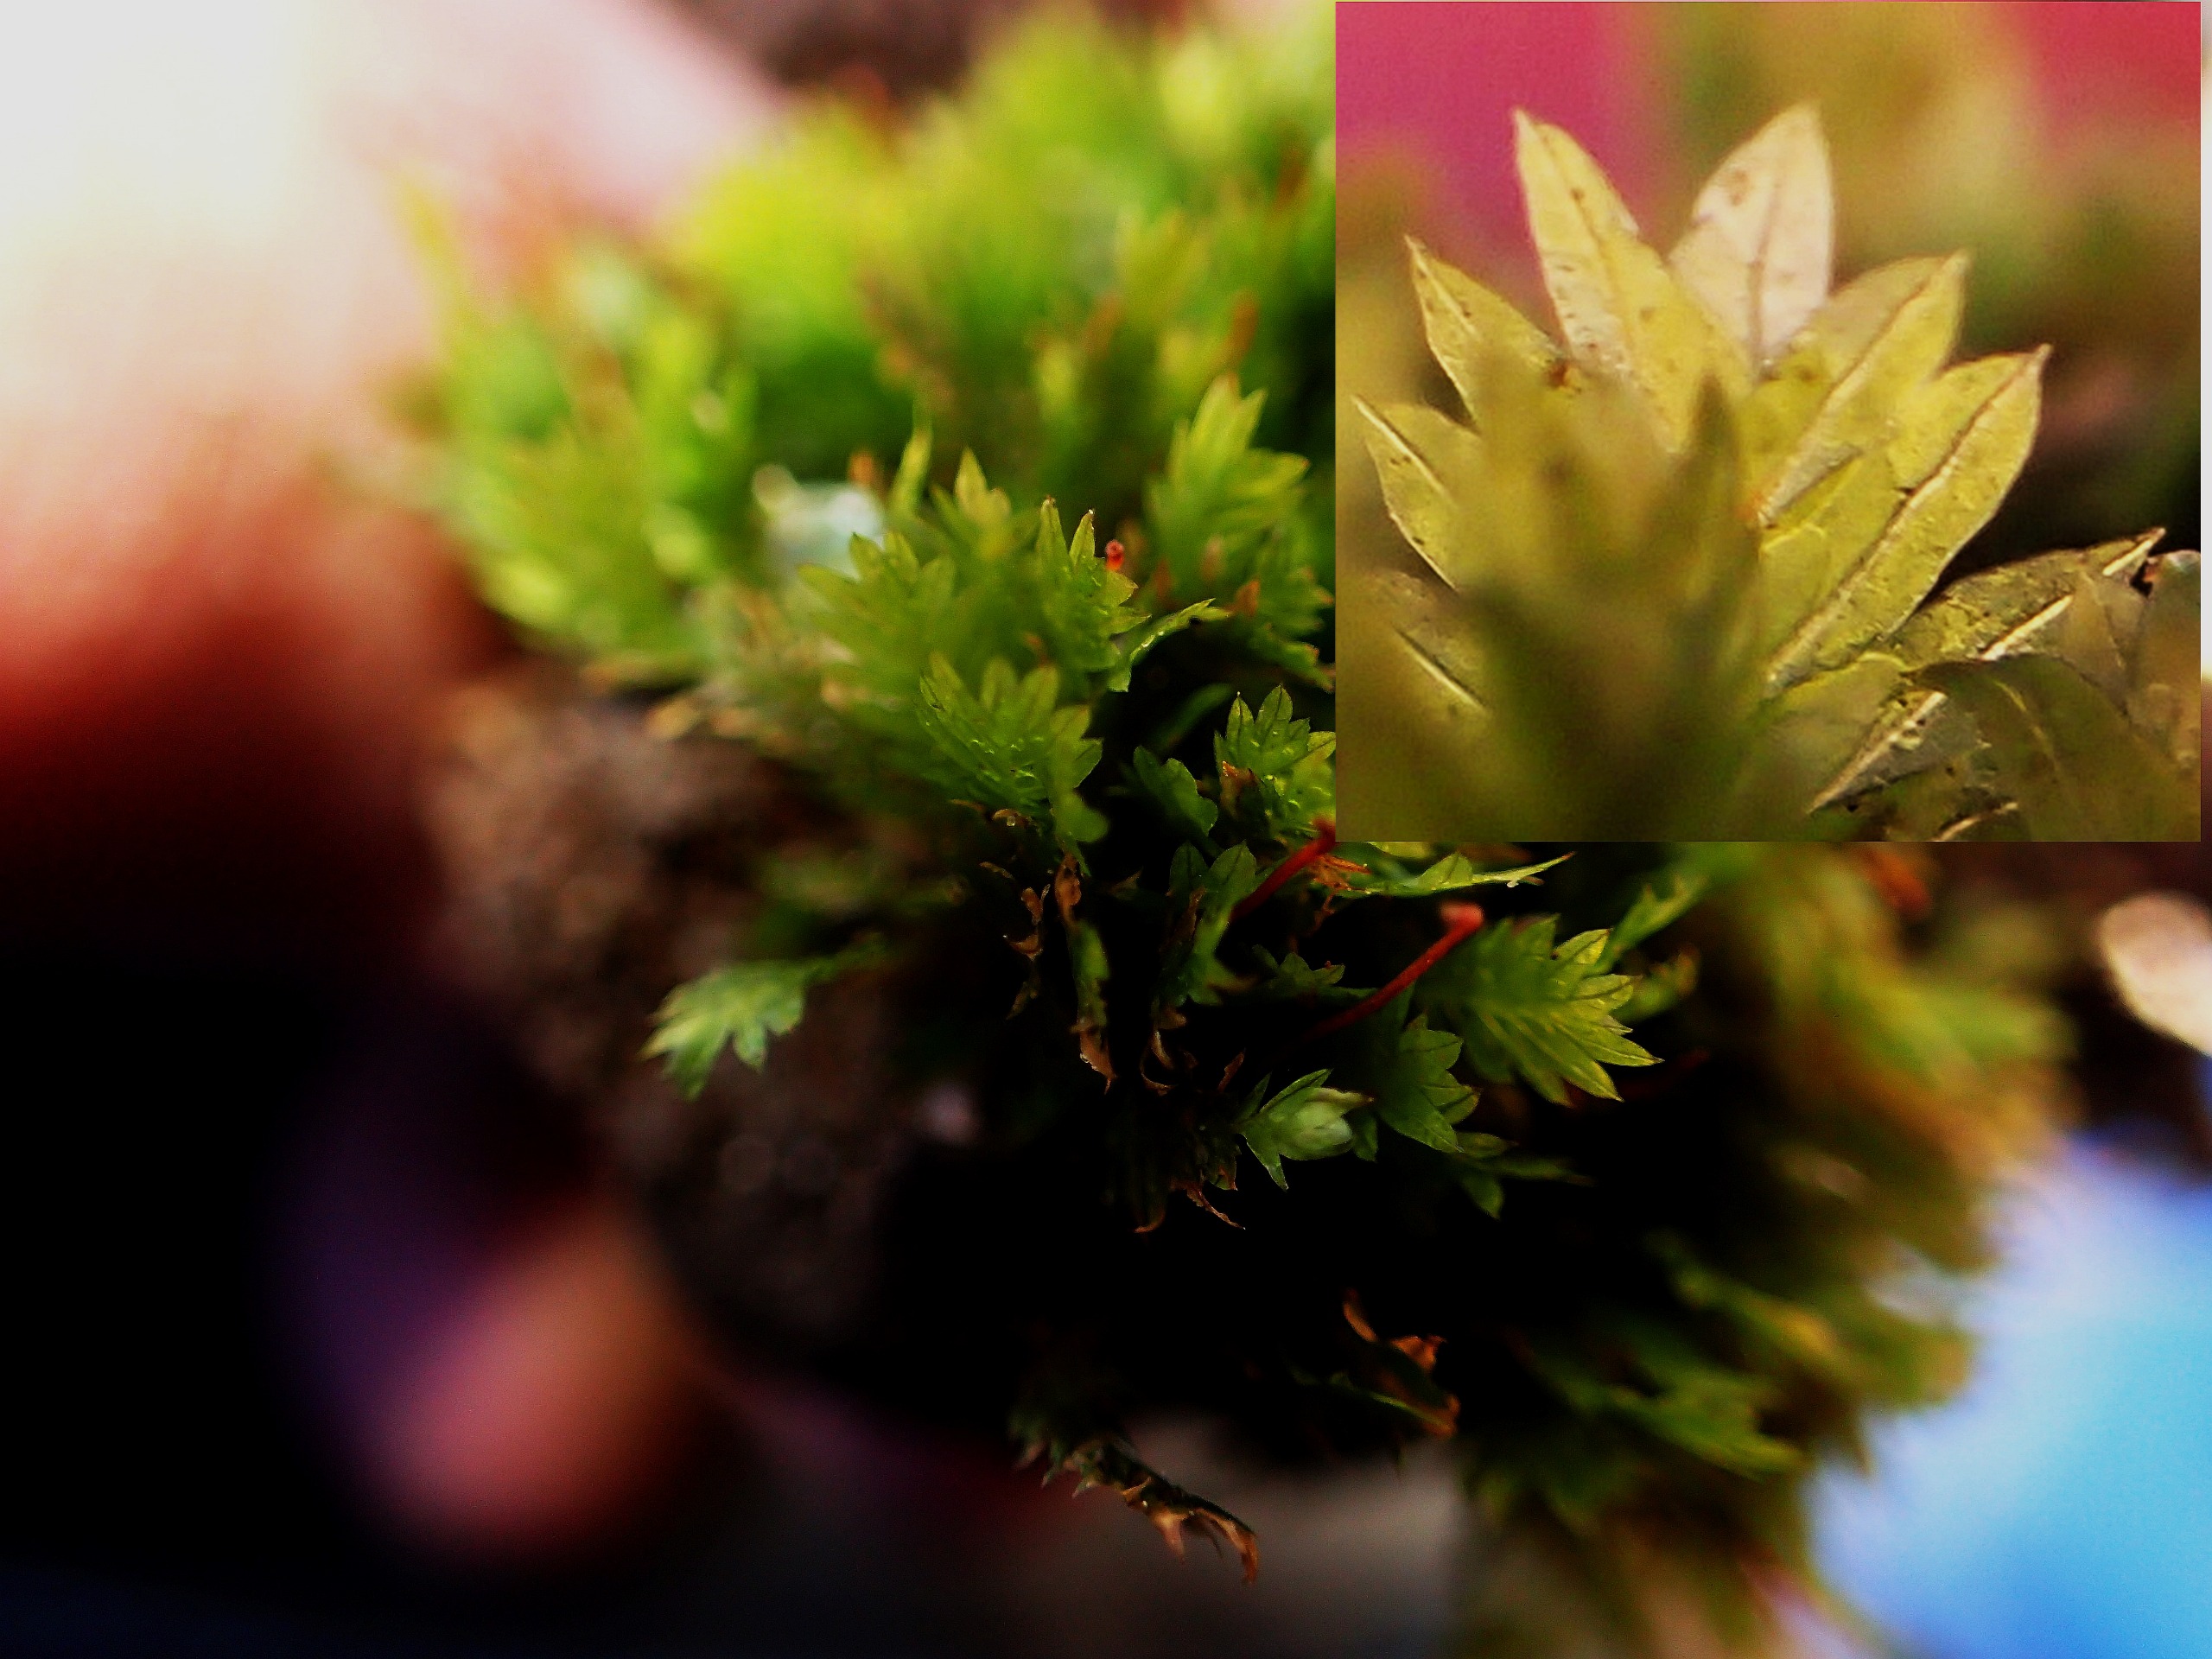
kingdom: Plantae
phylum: Bryophyta
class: Bryopsida
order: Dicranales
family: Fissidentaceae
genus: Fissidens
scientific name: Fissidens taxifolius
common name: Taksbladet rademos
